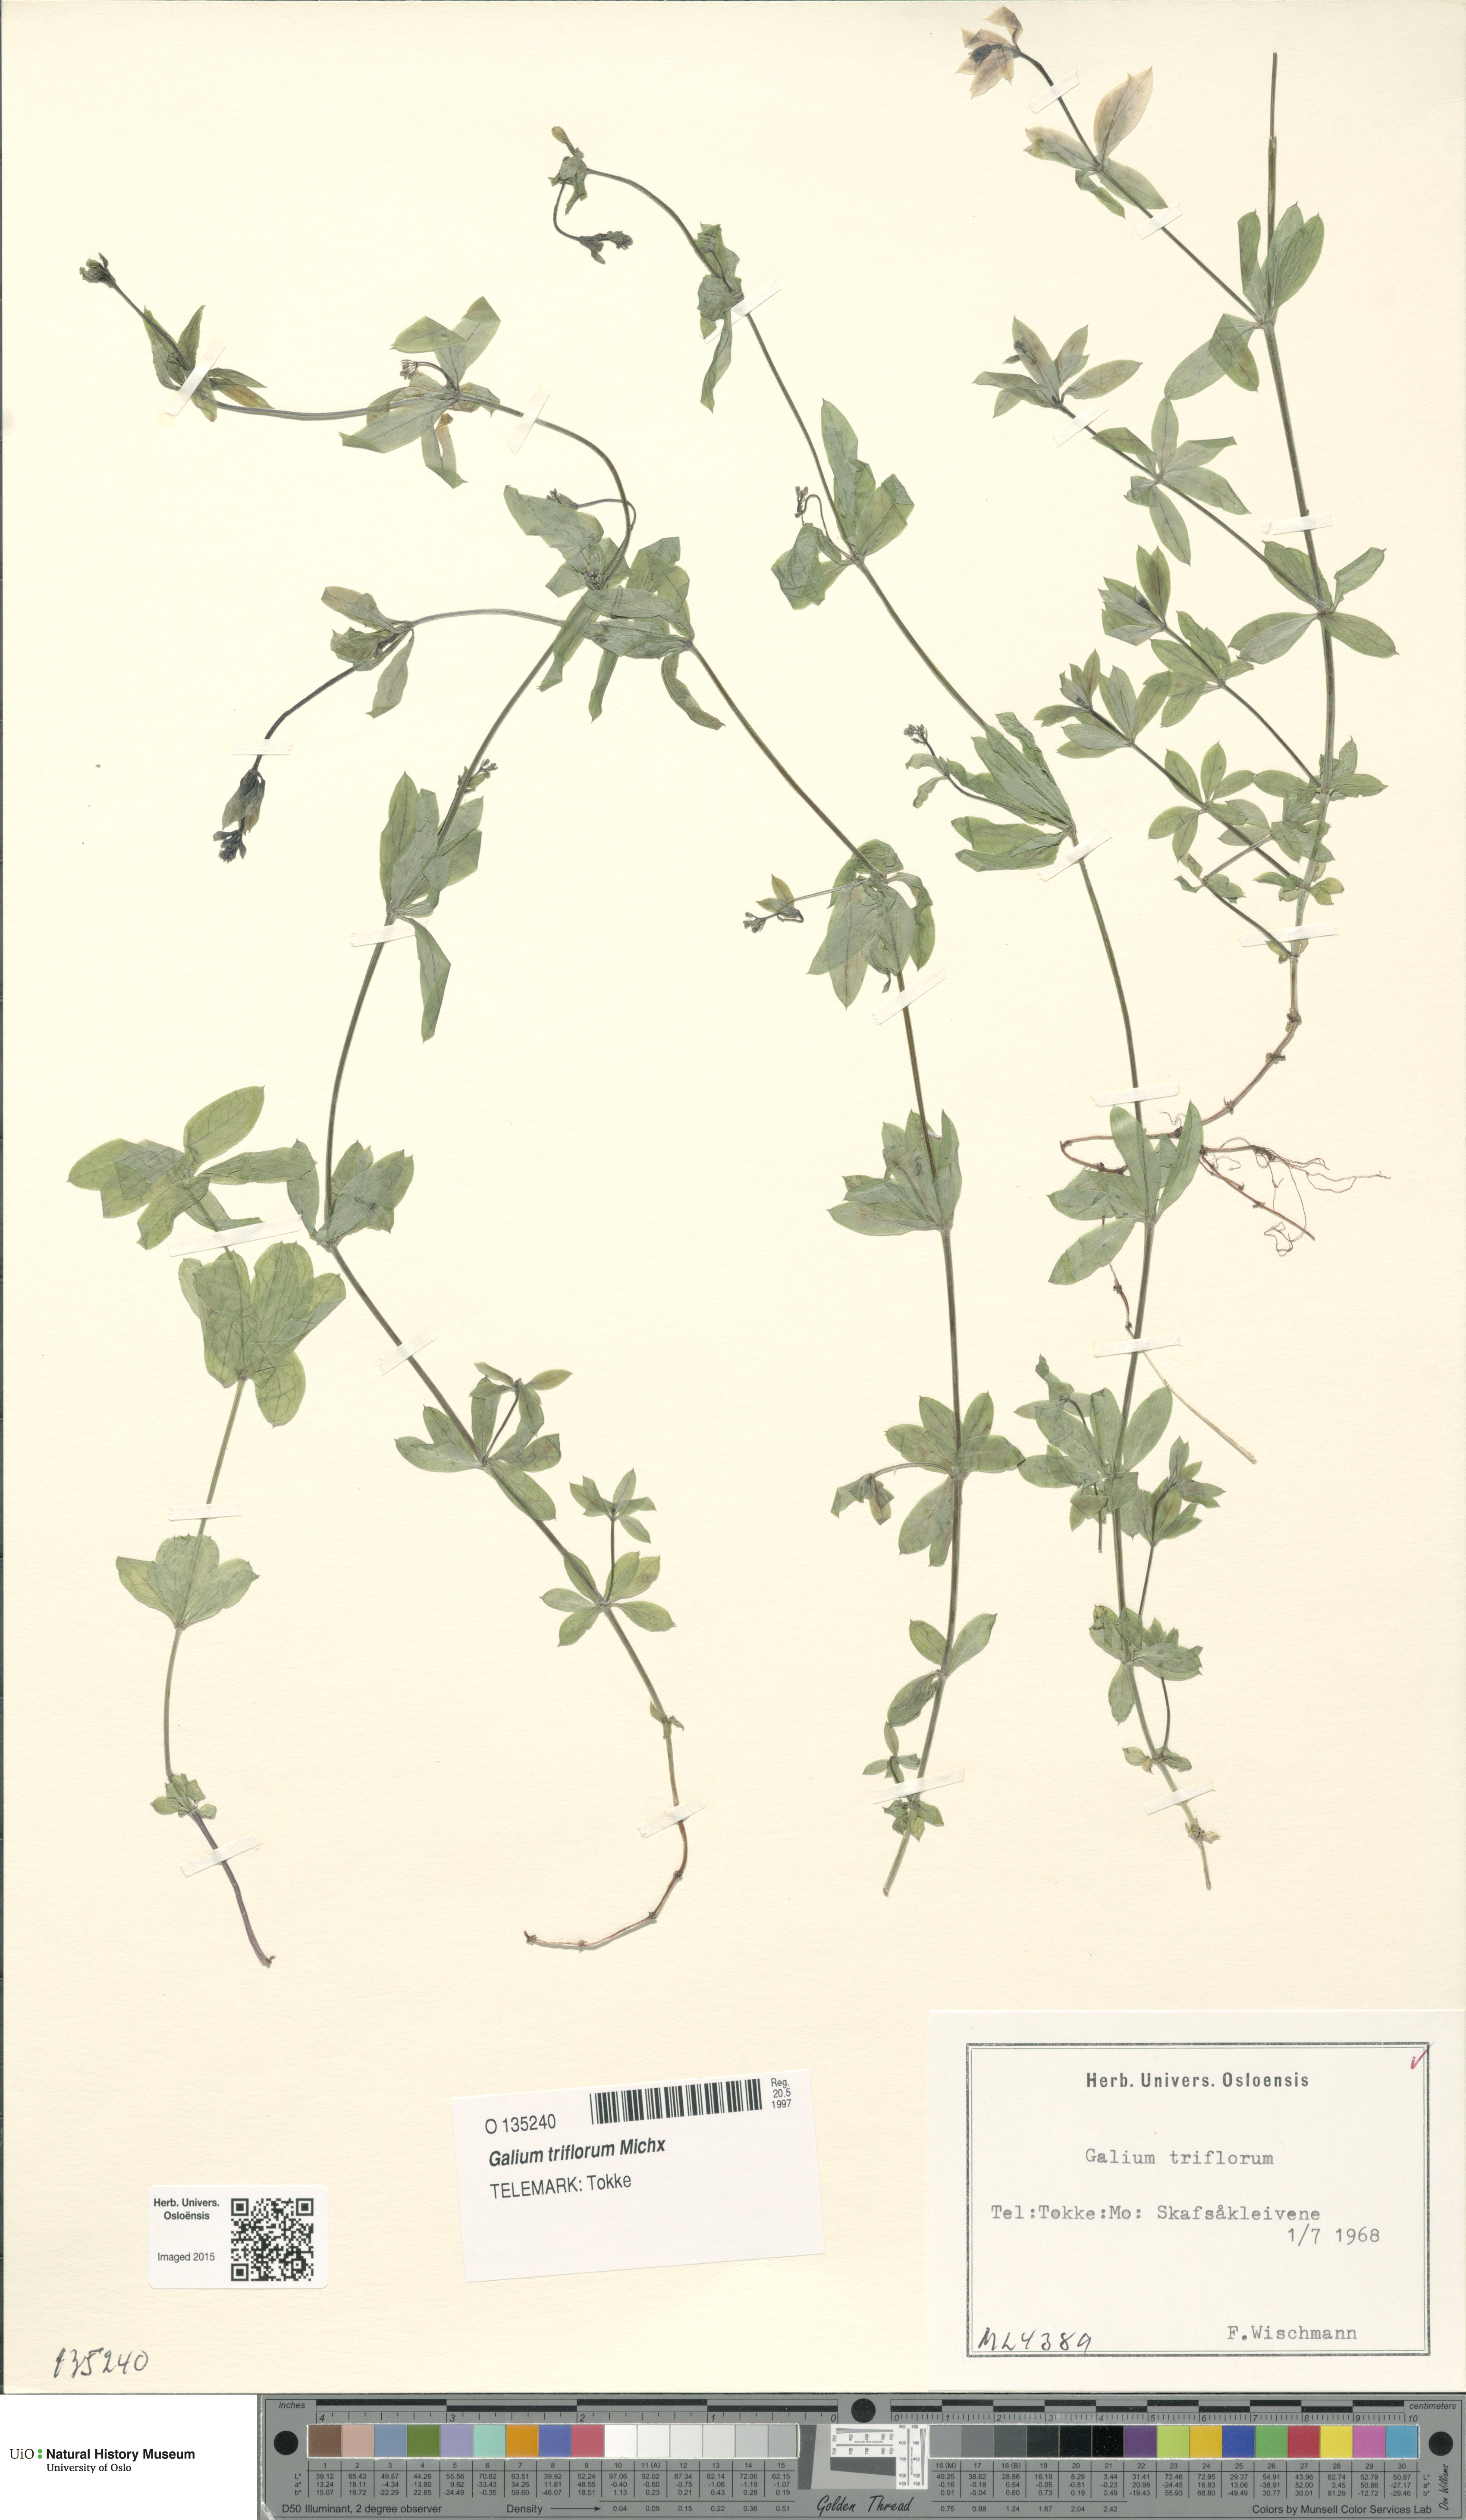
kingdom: Plantae
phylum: Tracheophyta
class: Magnoliopsida
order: Gentianales
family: Rubiaceae
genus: Galium
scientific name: Galium triflorum
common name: Fragrant bedstraw
